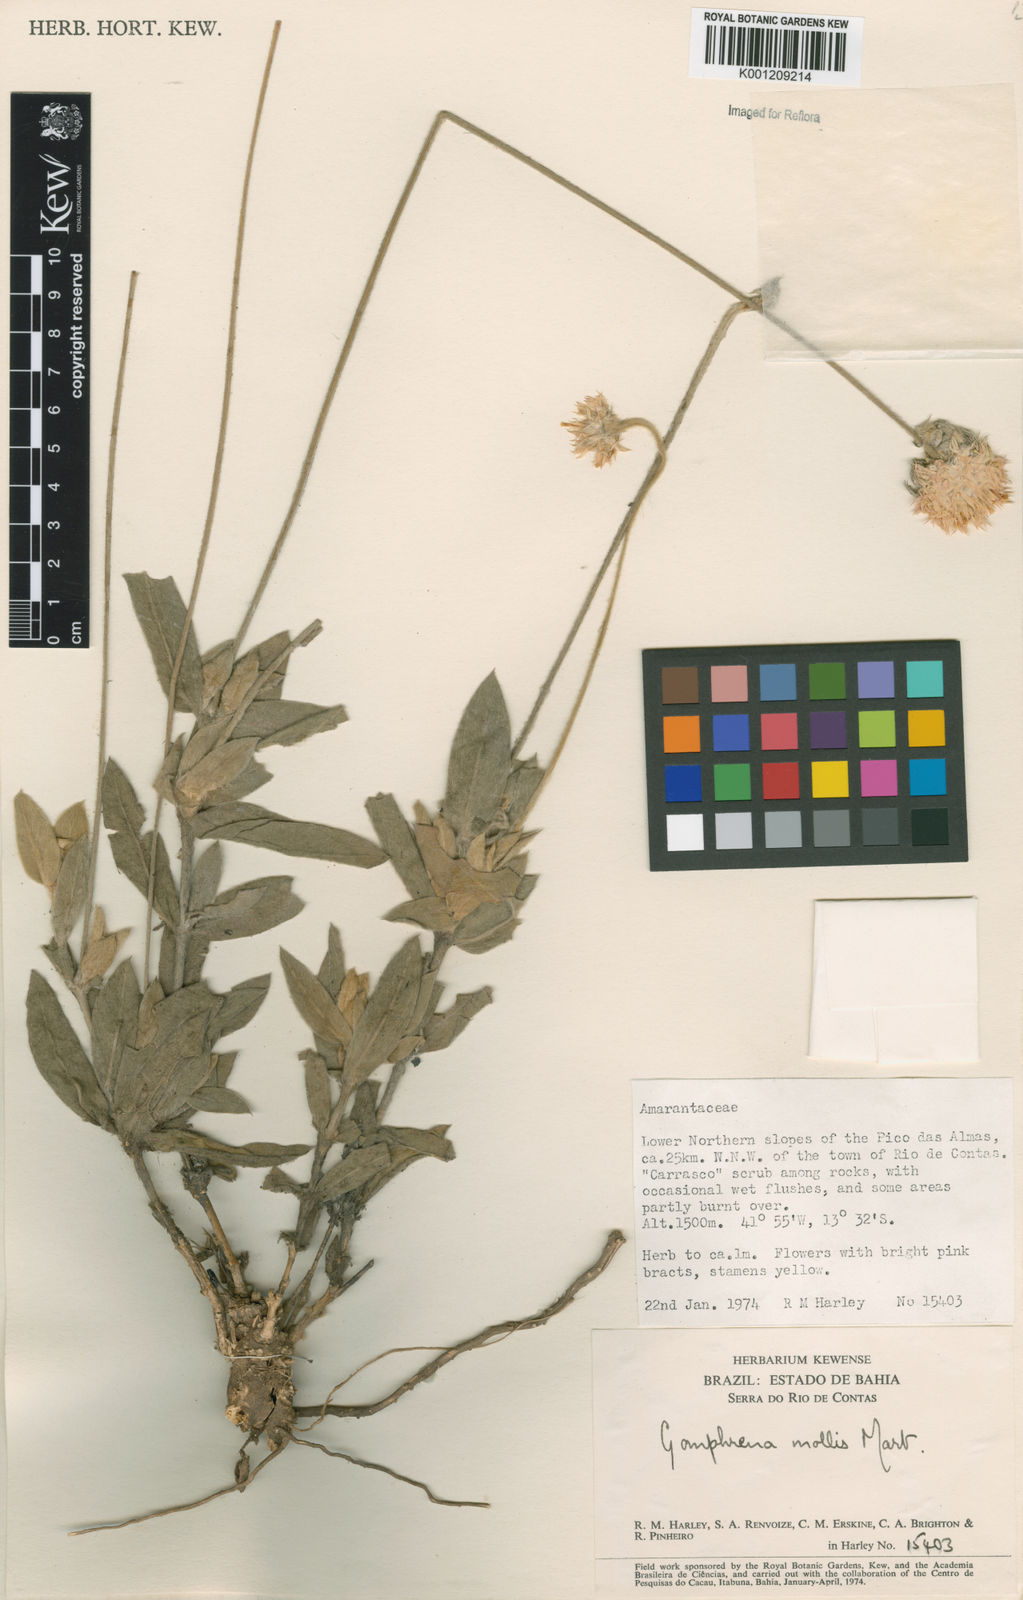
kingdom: Plantae
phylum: Tracheophyta
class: Magnoliopsida
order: Caryophyllales
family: Amaranthaceae
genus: Gomphrena
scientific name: Gomphrena mollis
